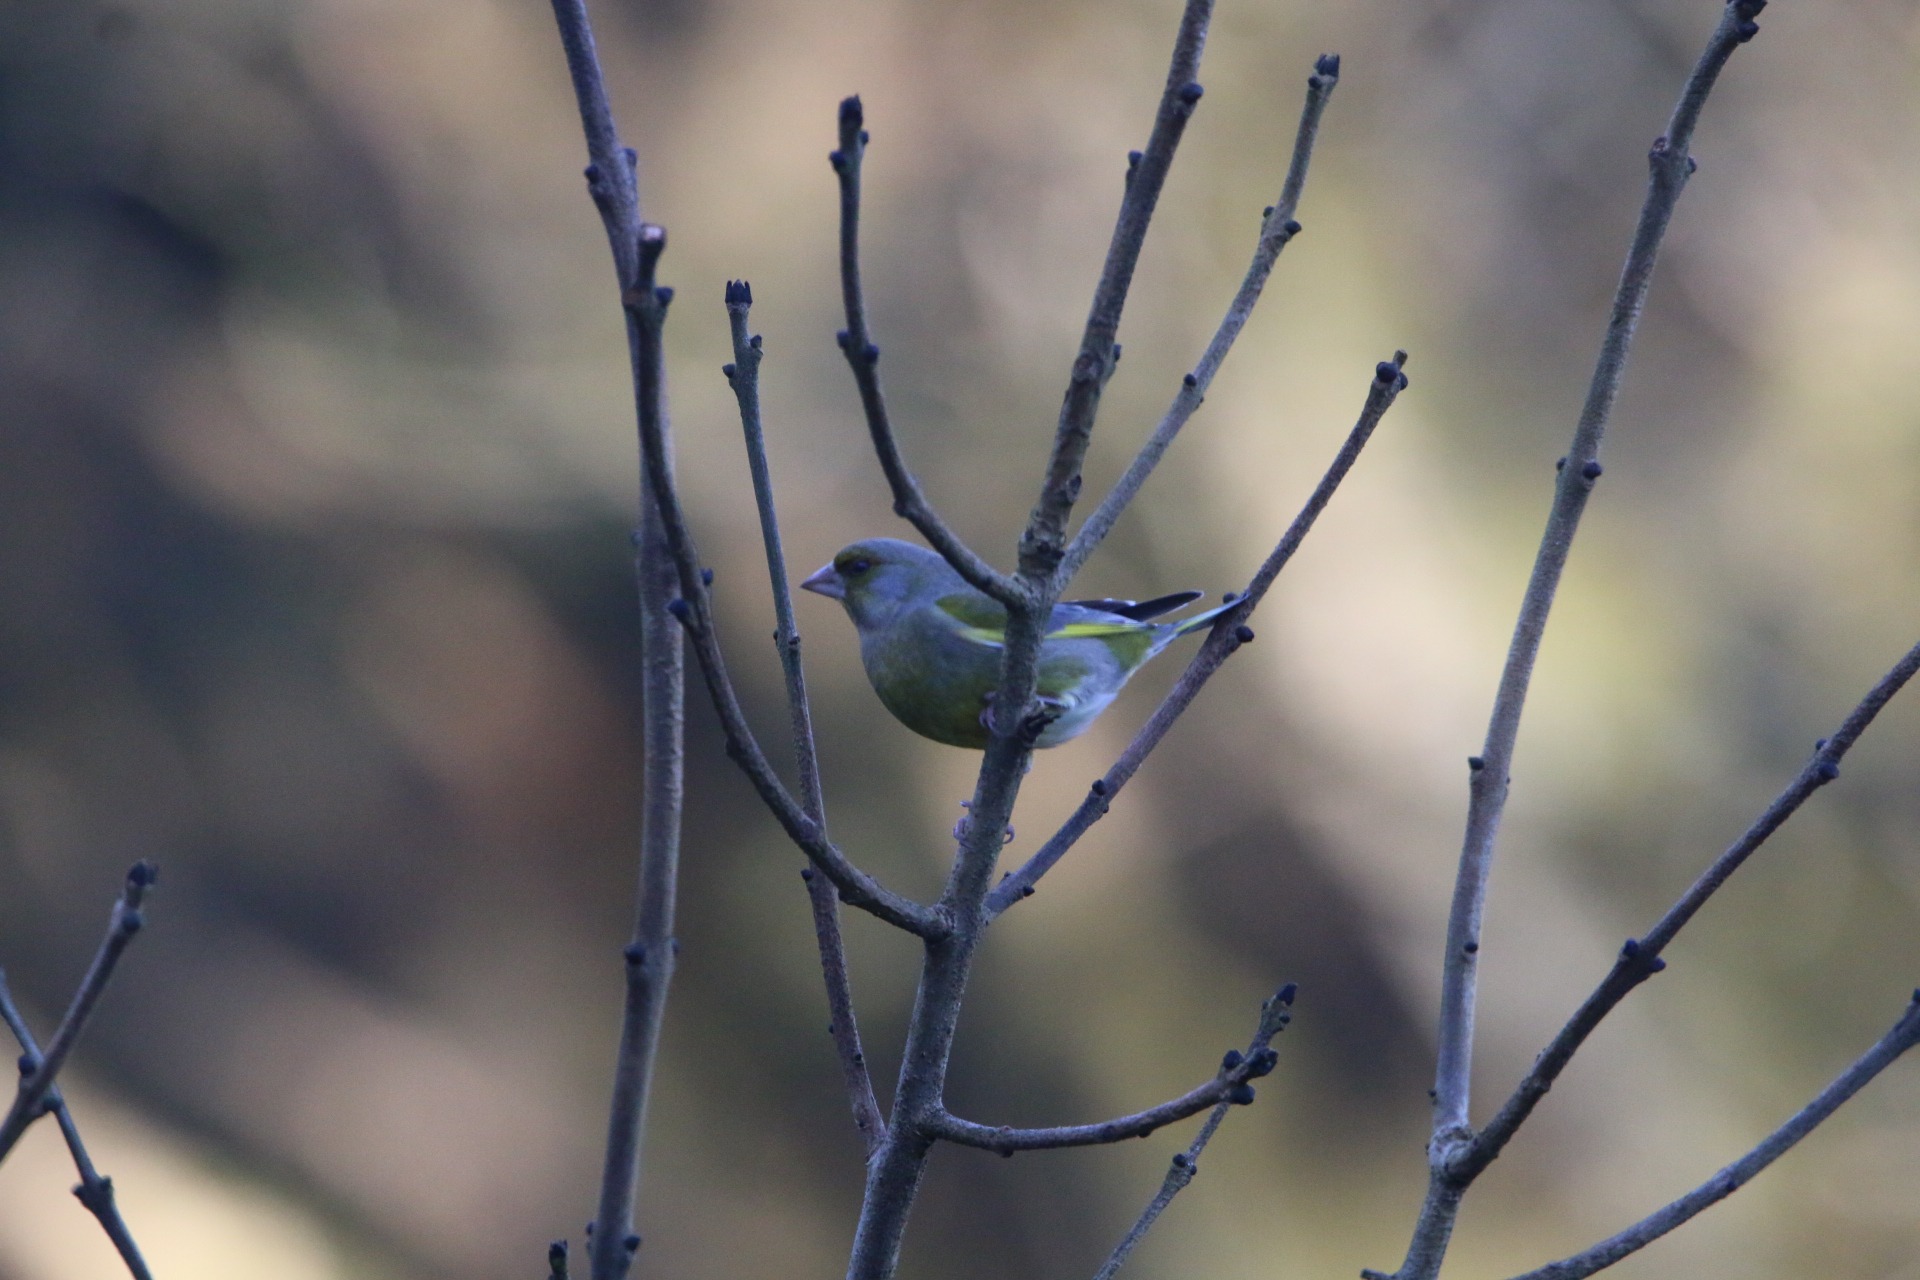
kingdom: Plantae
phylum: Tracheophyta
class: Liliopsida
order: Poales
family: Poaceae
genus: Chloris
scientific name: Chloris chloris
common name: Grønirisk
